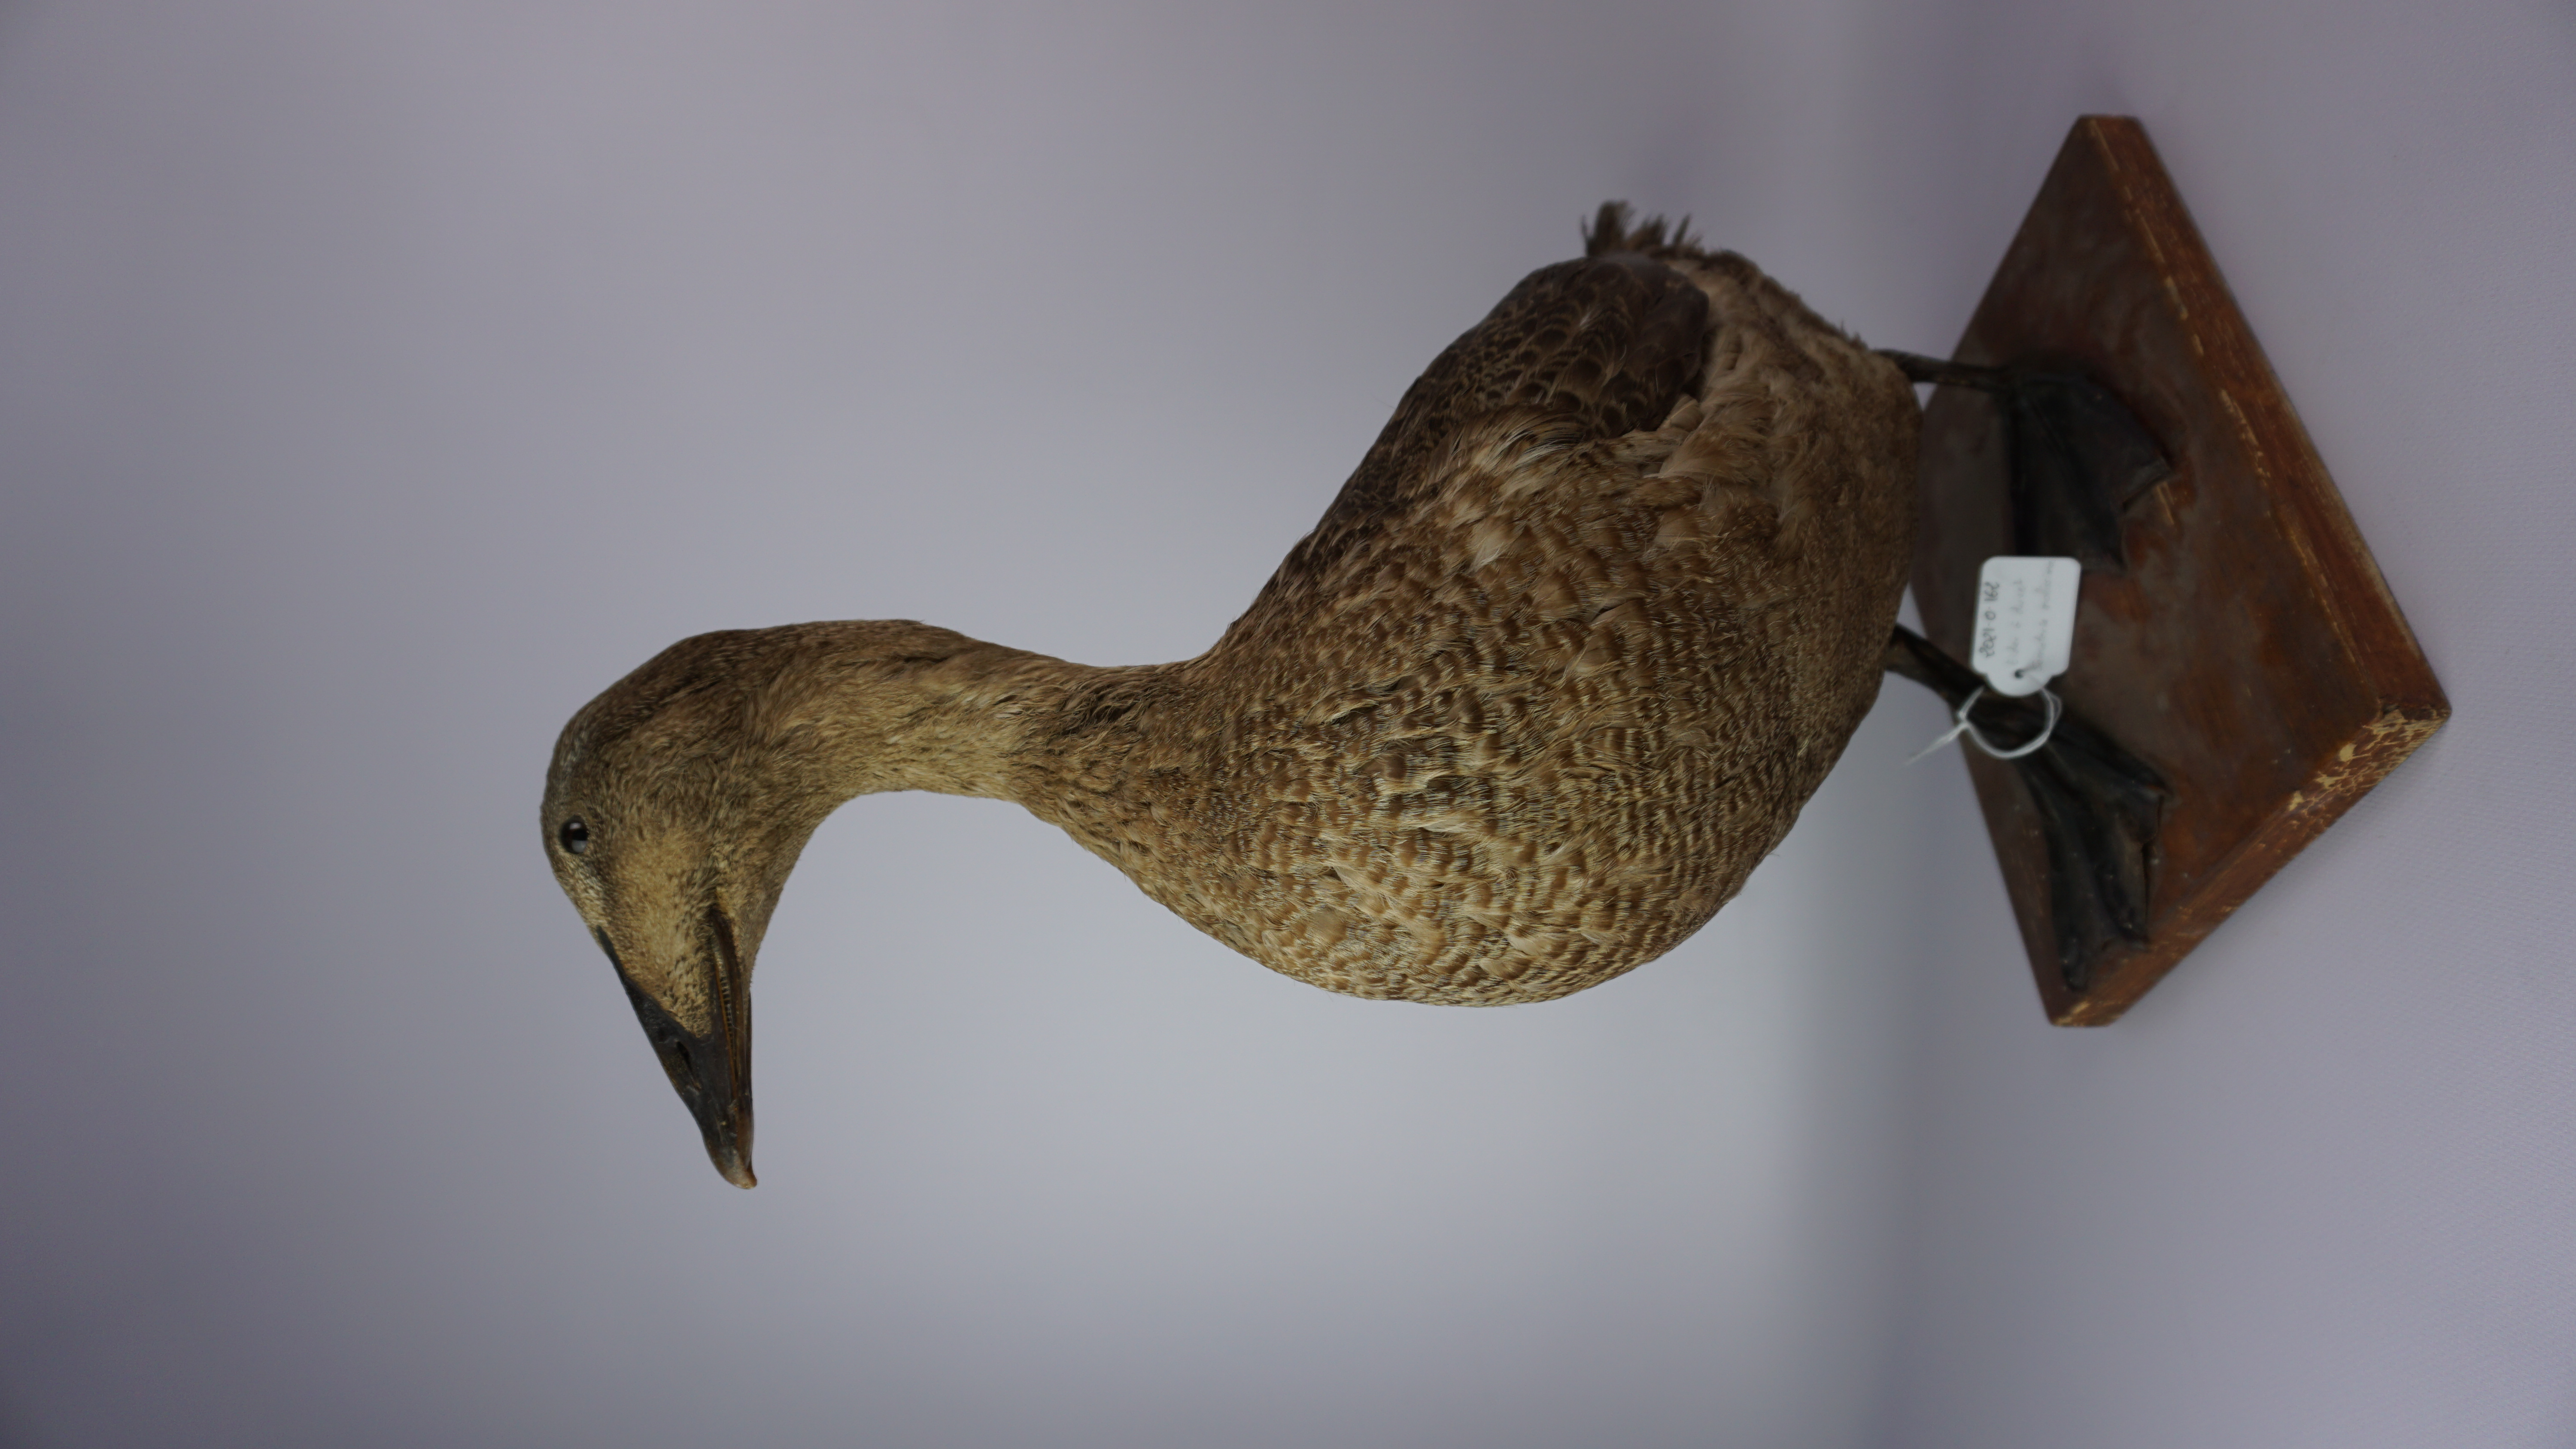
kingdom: Animalia
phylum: Chordata
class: Aves
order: Anseriformes
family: Anatidae
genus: Somateria
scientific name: Somateria mollissima
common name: Common eider
